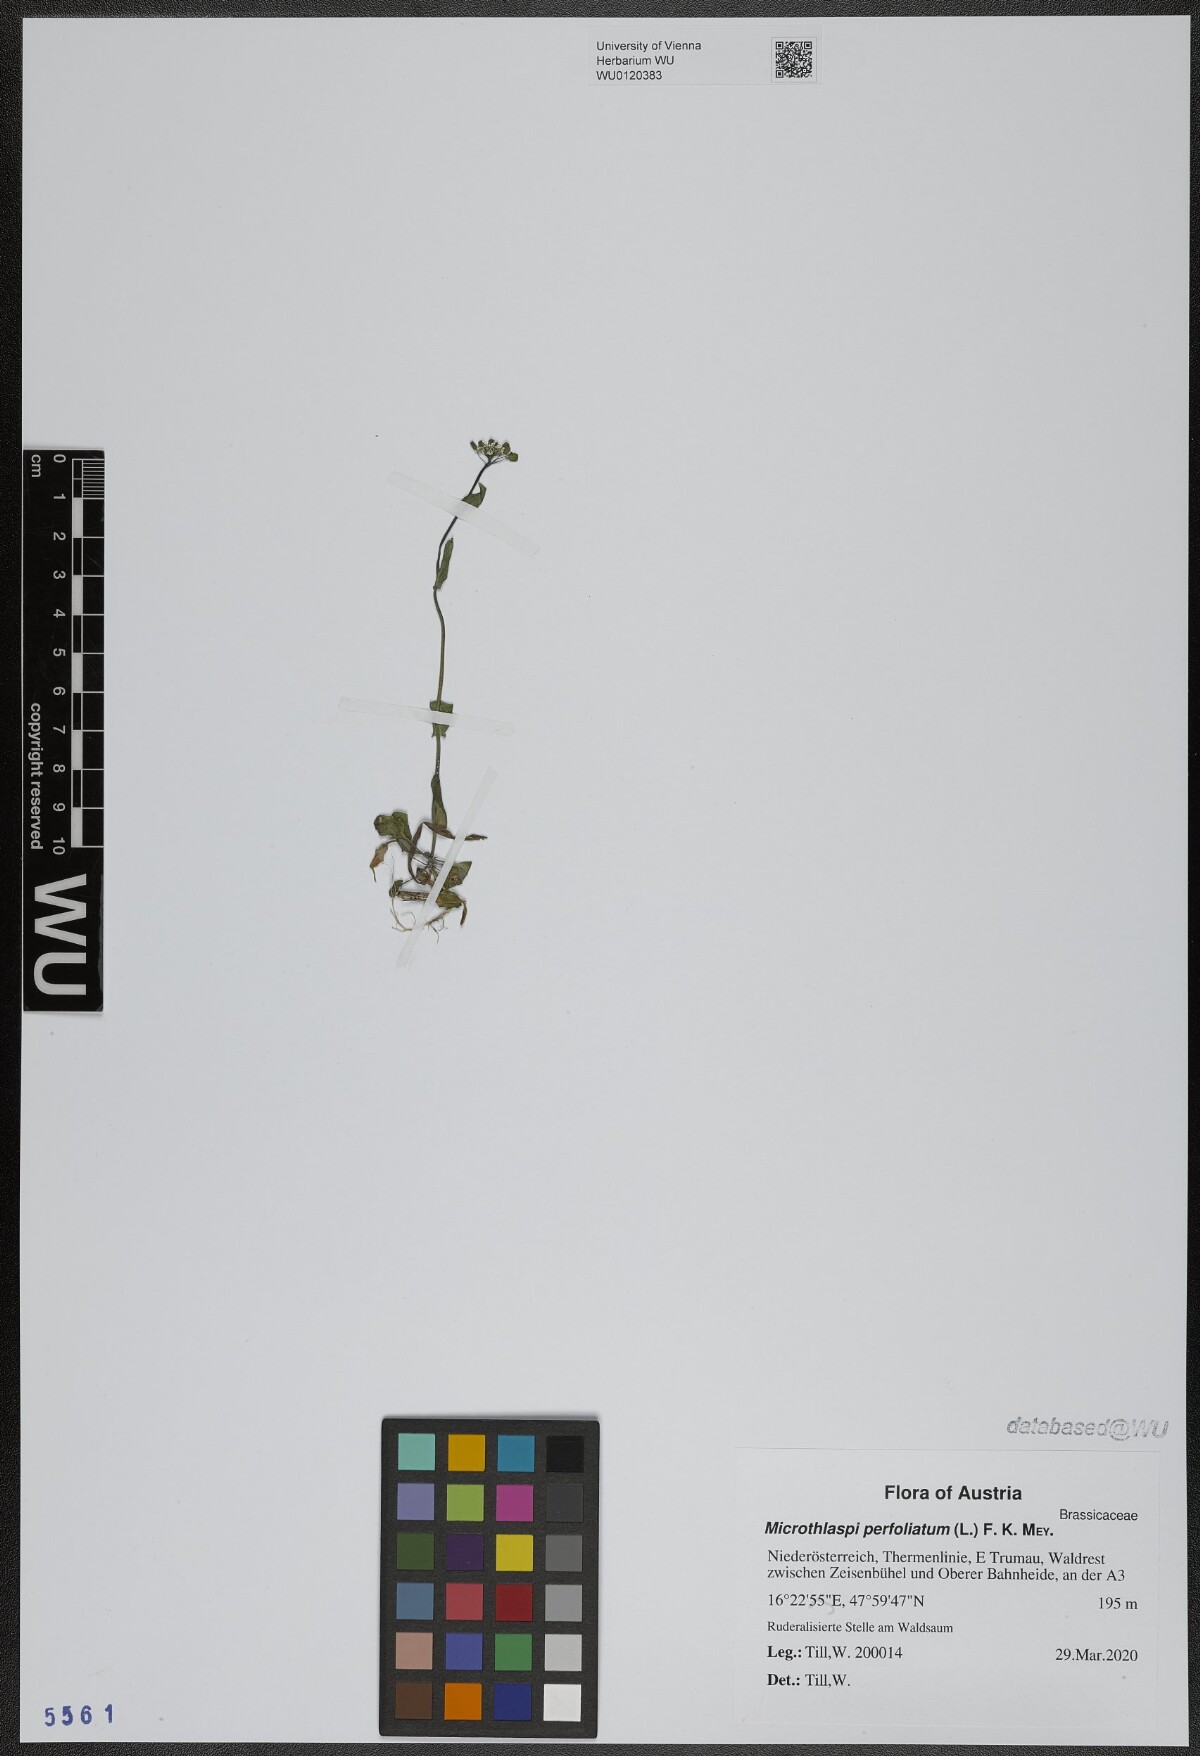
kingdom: Plantae
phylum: Tracheophyta
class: Magnoliopsida
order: Brassicales
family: Brassicaceae
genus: Noccaea
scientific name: Noccaea perfoliata
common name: Perfoliate pennycress
